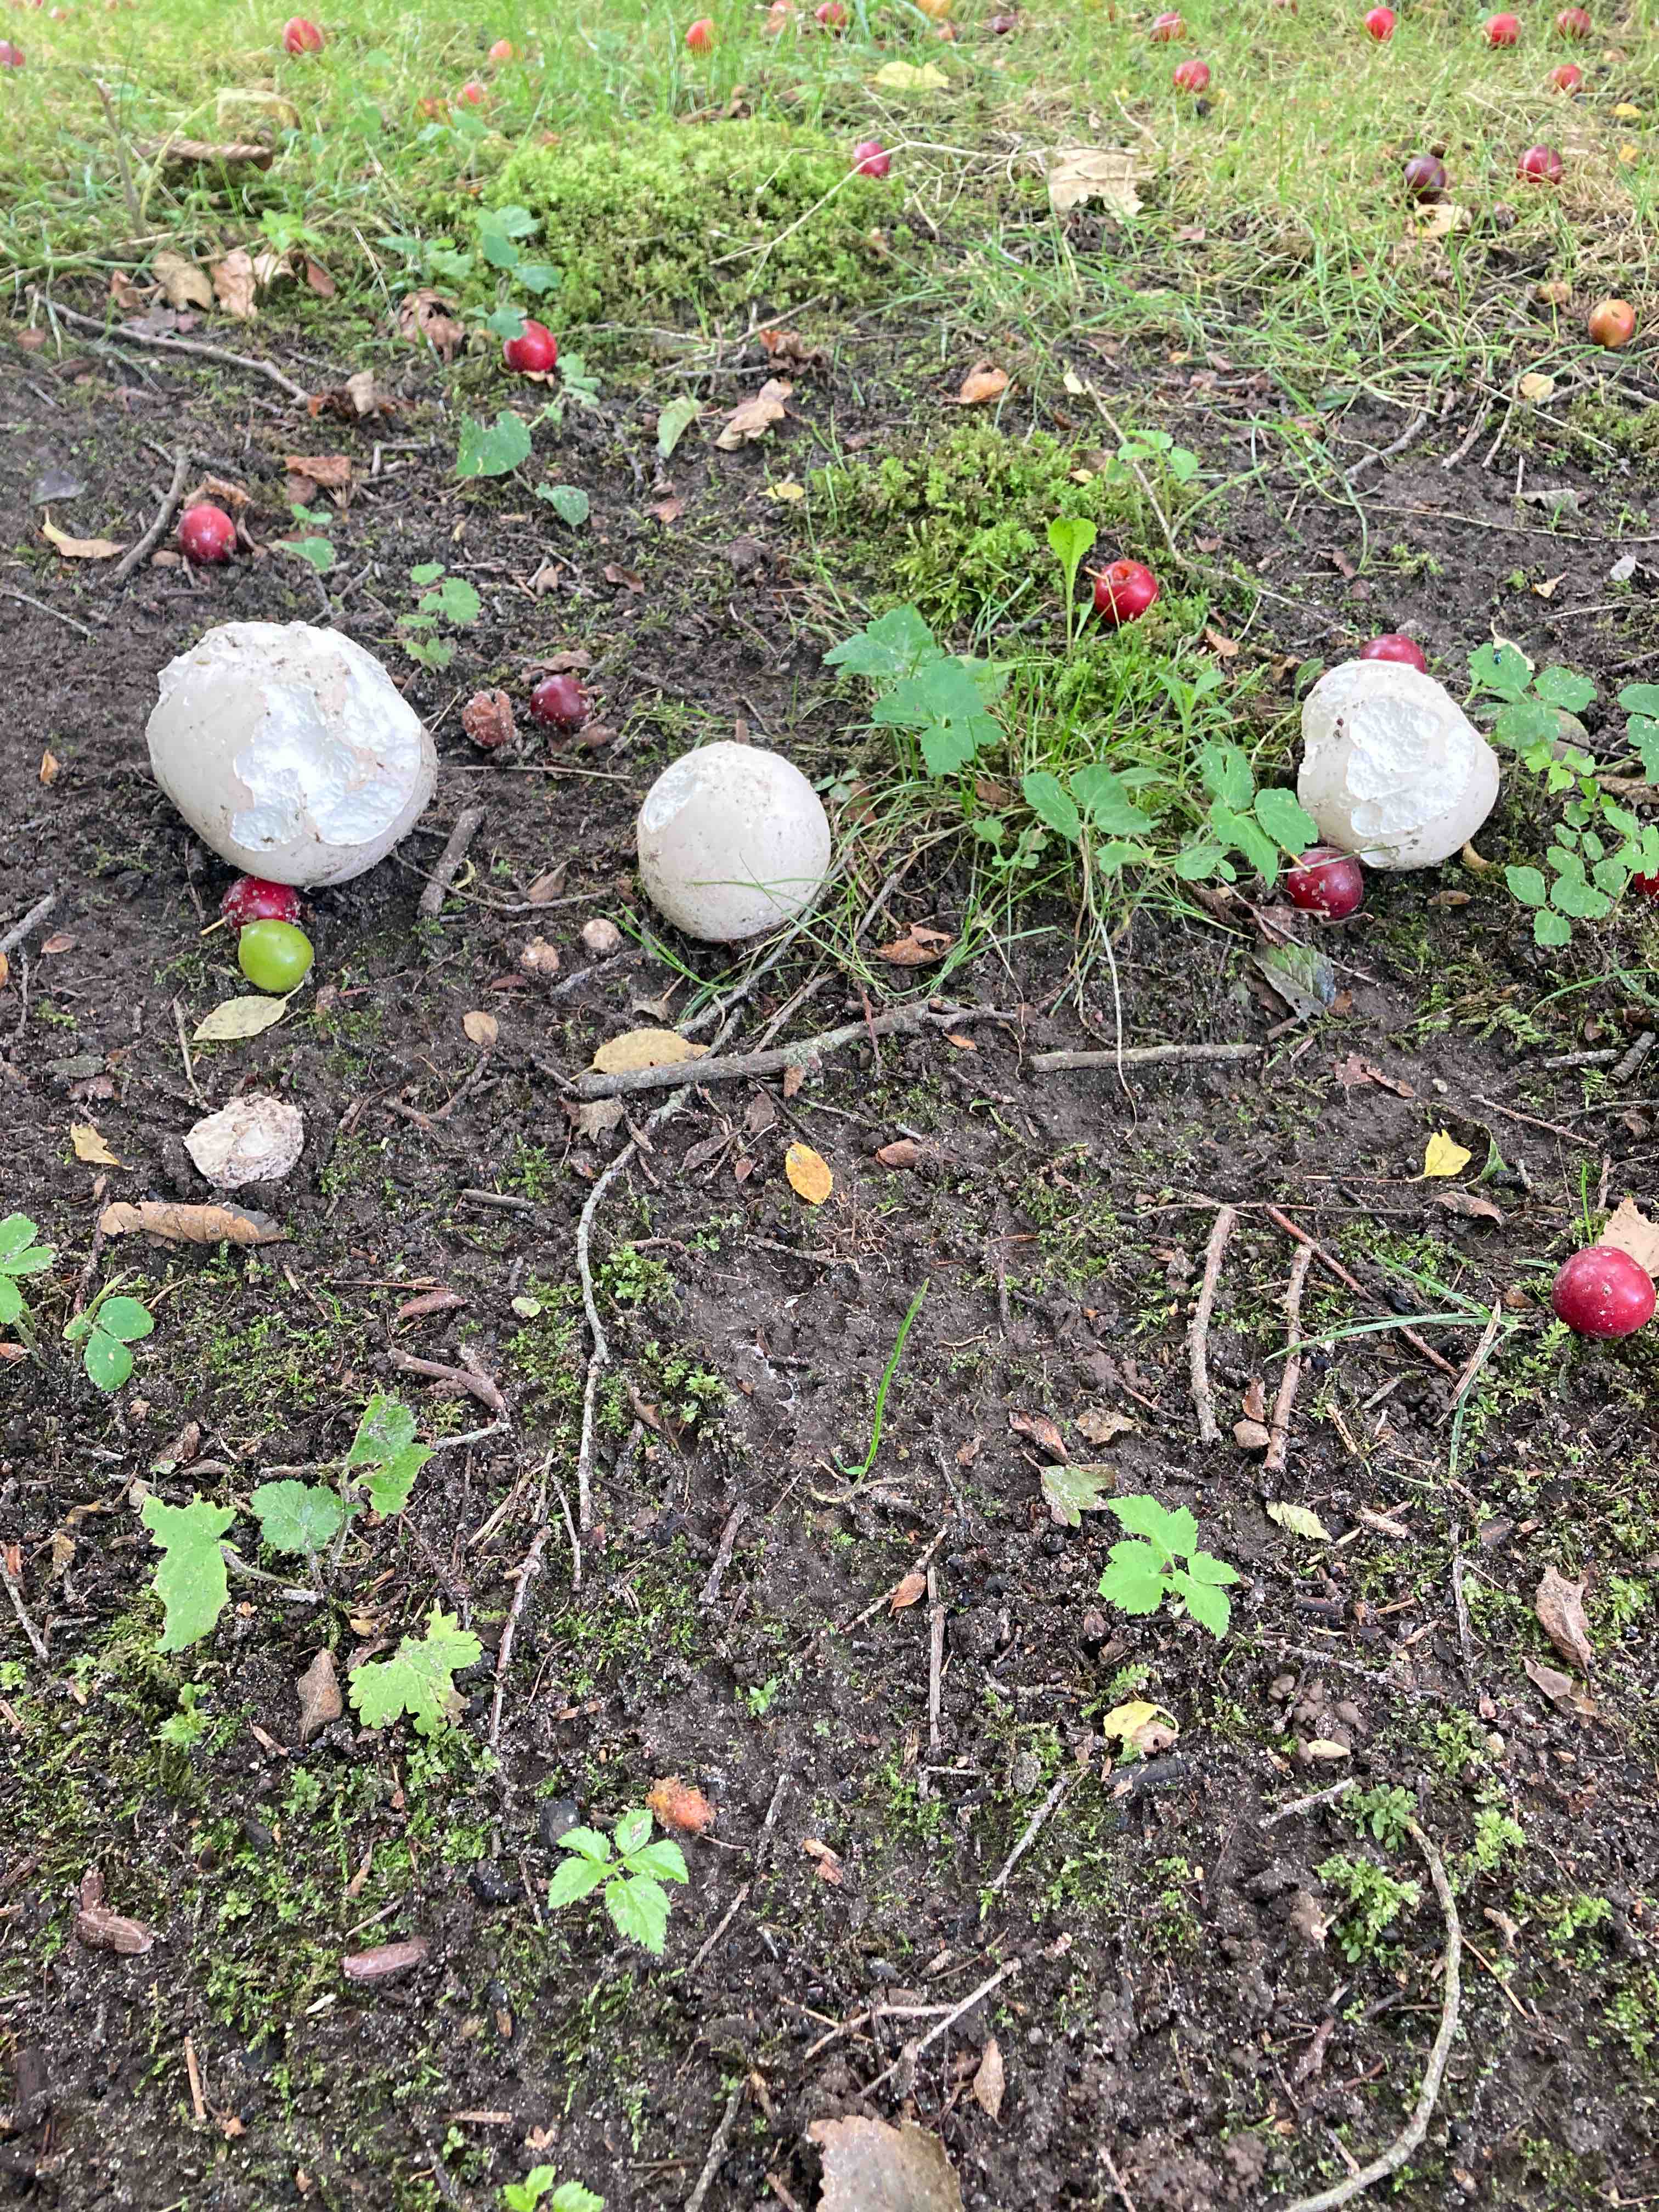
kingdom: Fungi
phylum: Basidiomycota
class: Agaricomycetes
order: Agaricales
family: Lycoperdaceae
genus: Calvatia
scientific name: Calvatia gigantea
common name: kæmpestøvbold
